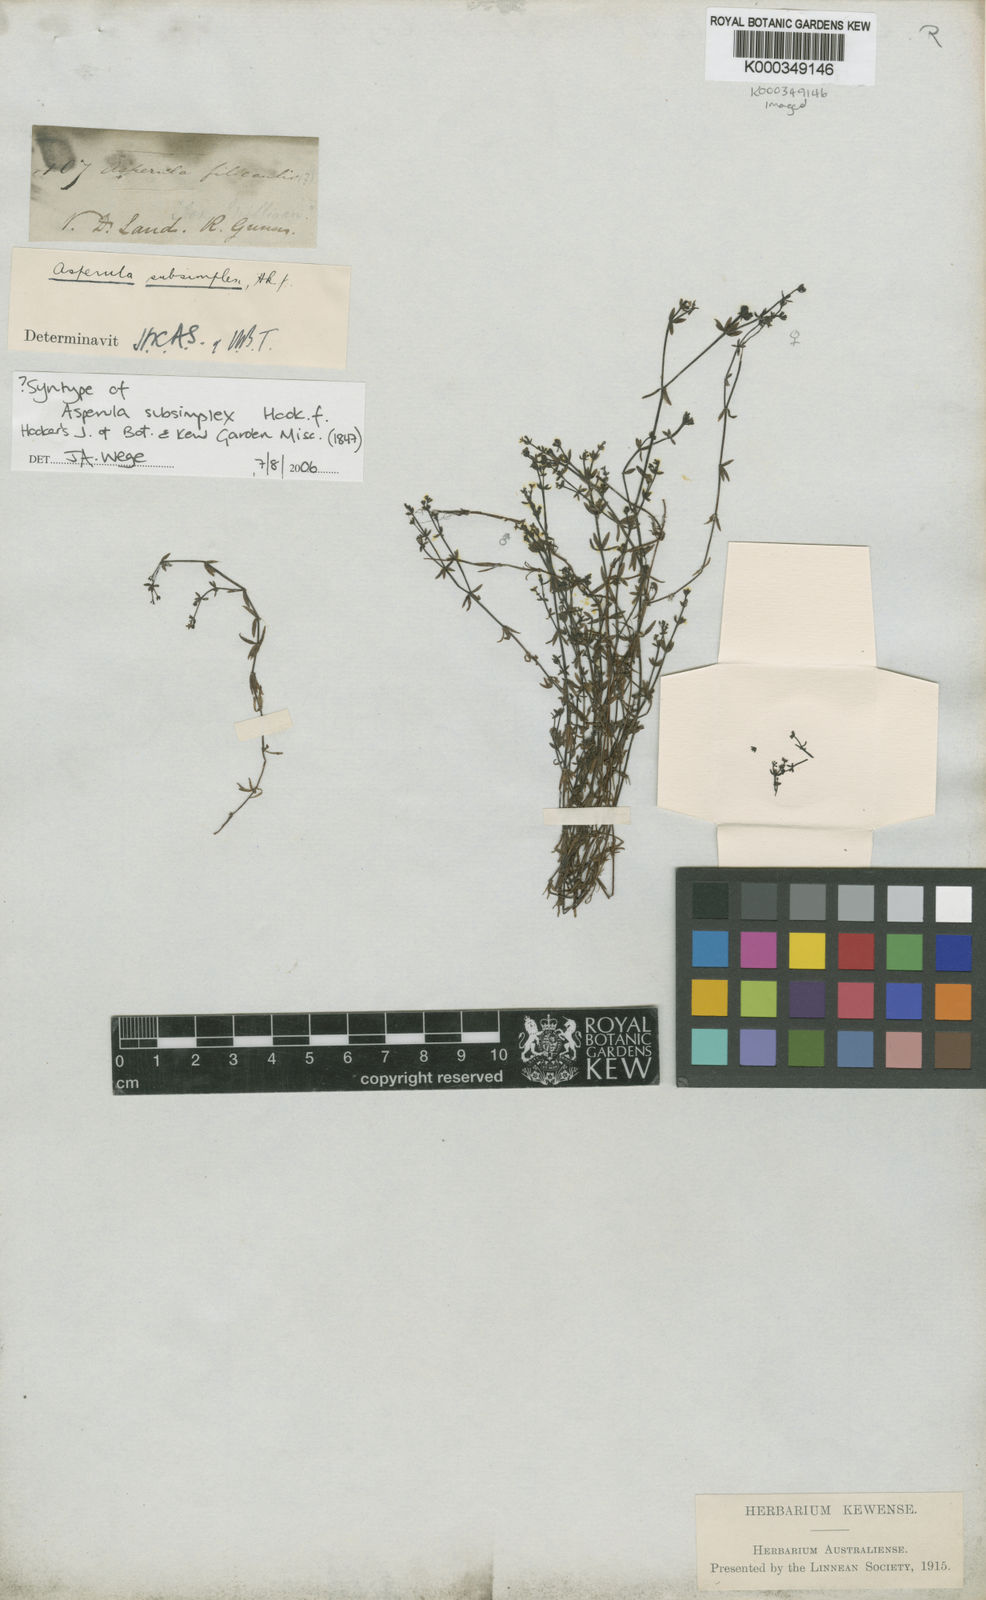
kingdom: Plantae
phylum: Tracheophyta
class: Magnoliopsida
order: Gentianales
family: Rubiaceae
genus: Asperula
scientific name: Asperula subsimplex
